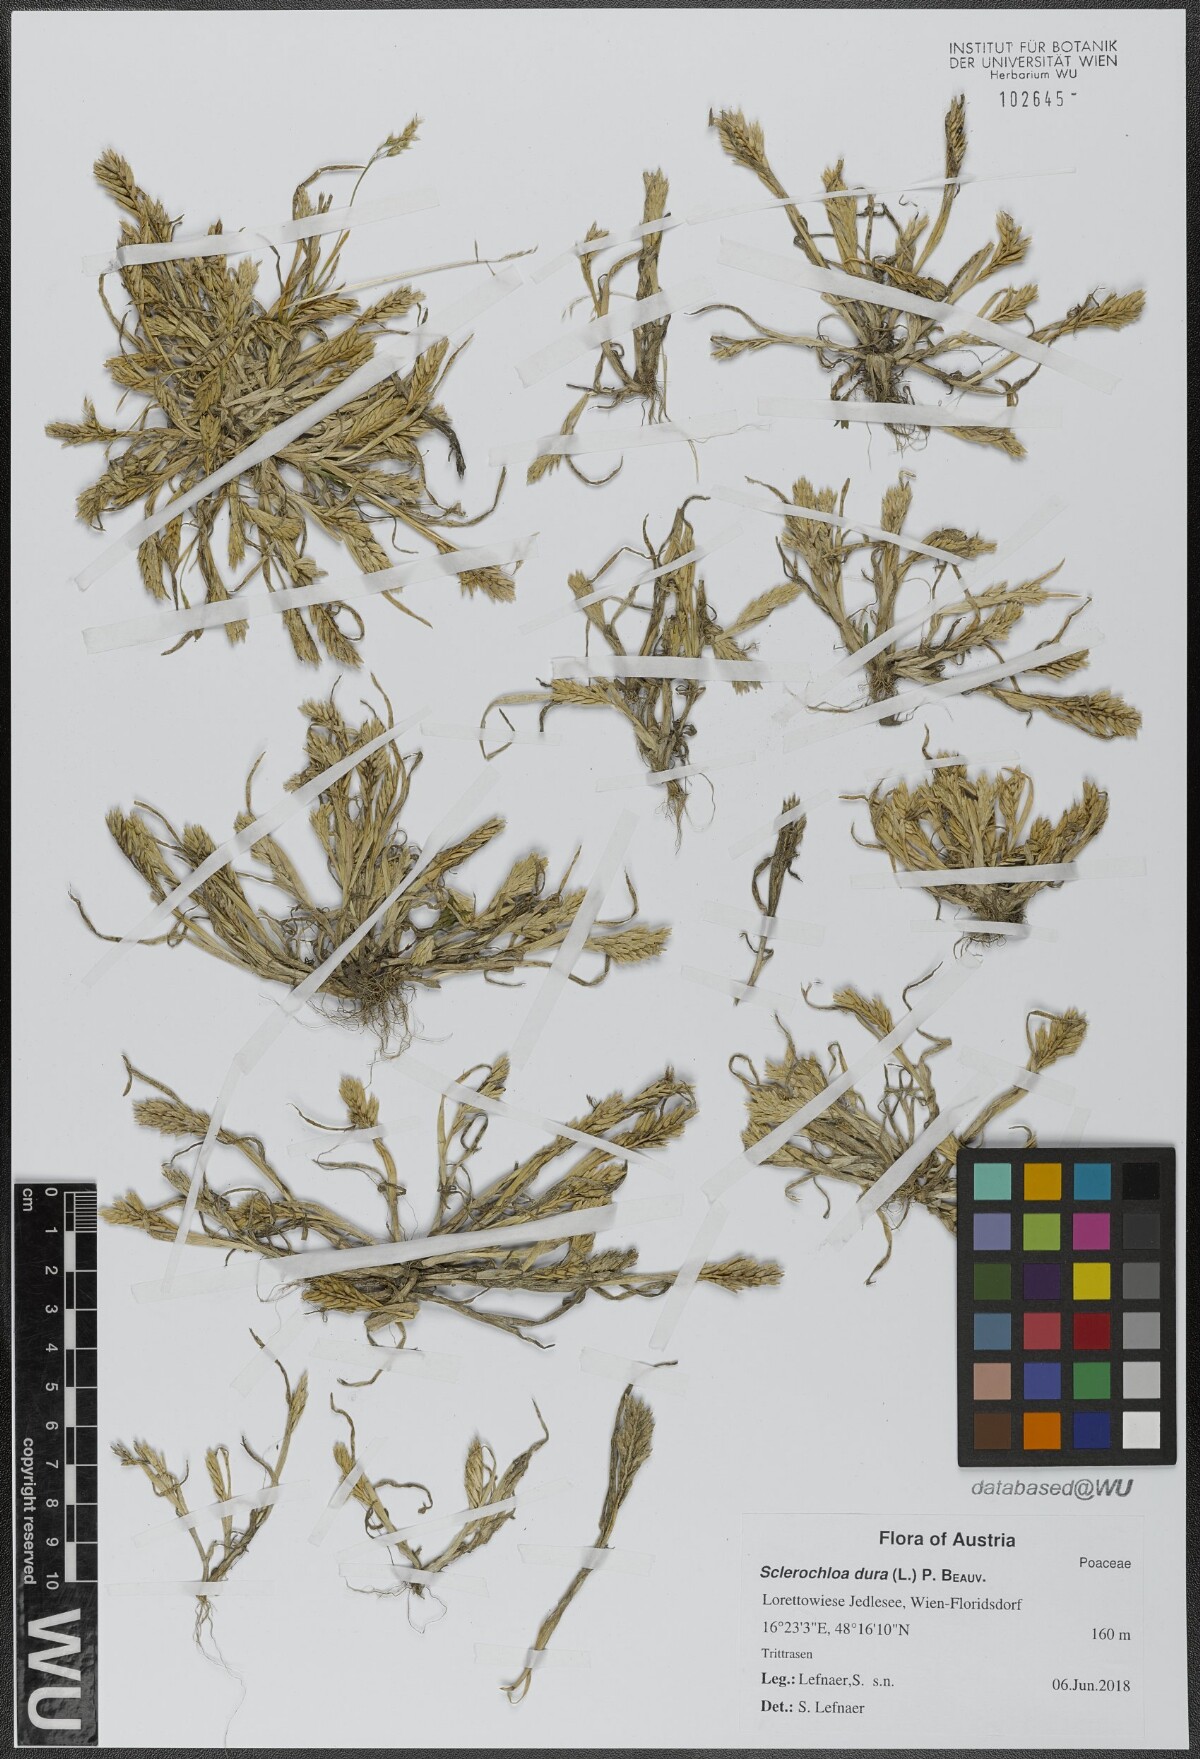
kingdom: Plantae
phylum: Tracheophyta
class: Liliopsida
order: Poales
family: Poaceae
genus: Sclerochloa
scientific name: Sclerochloa dura
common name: Common hardgrass
